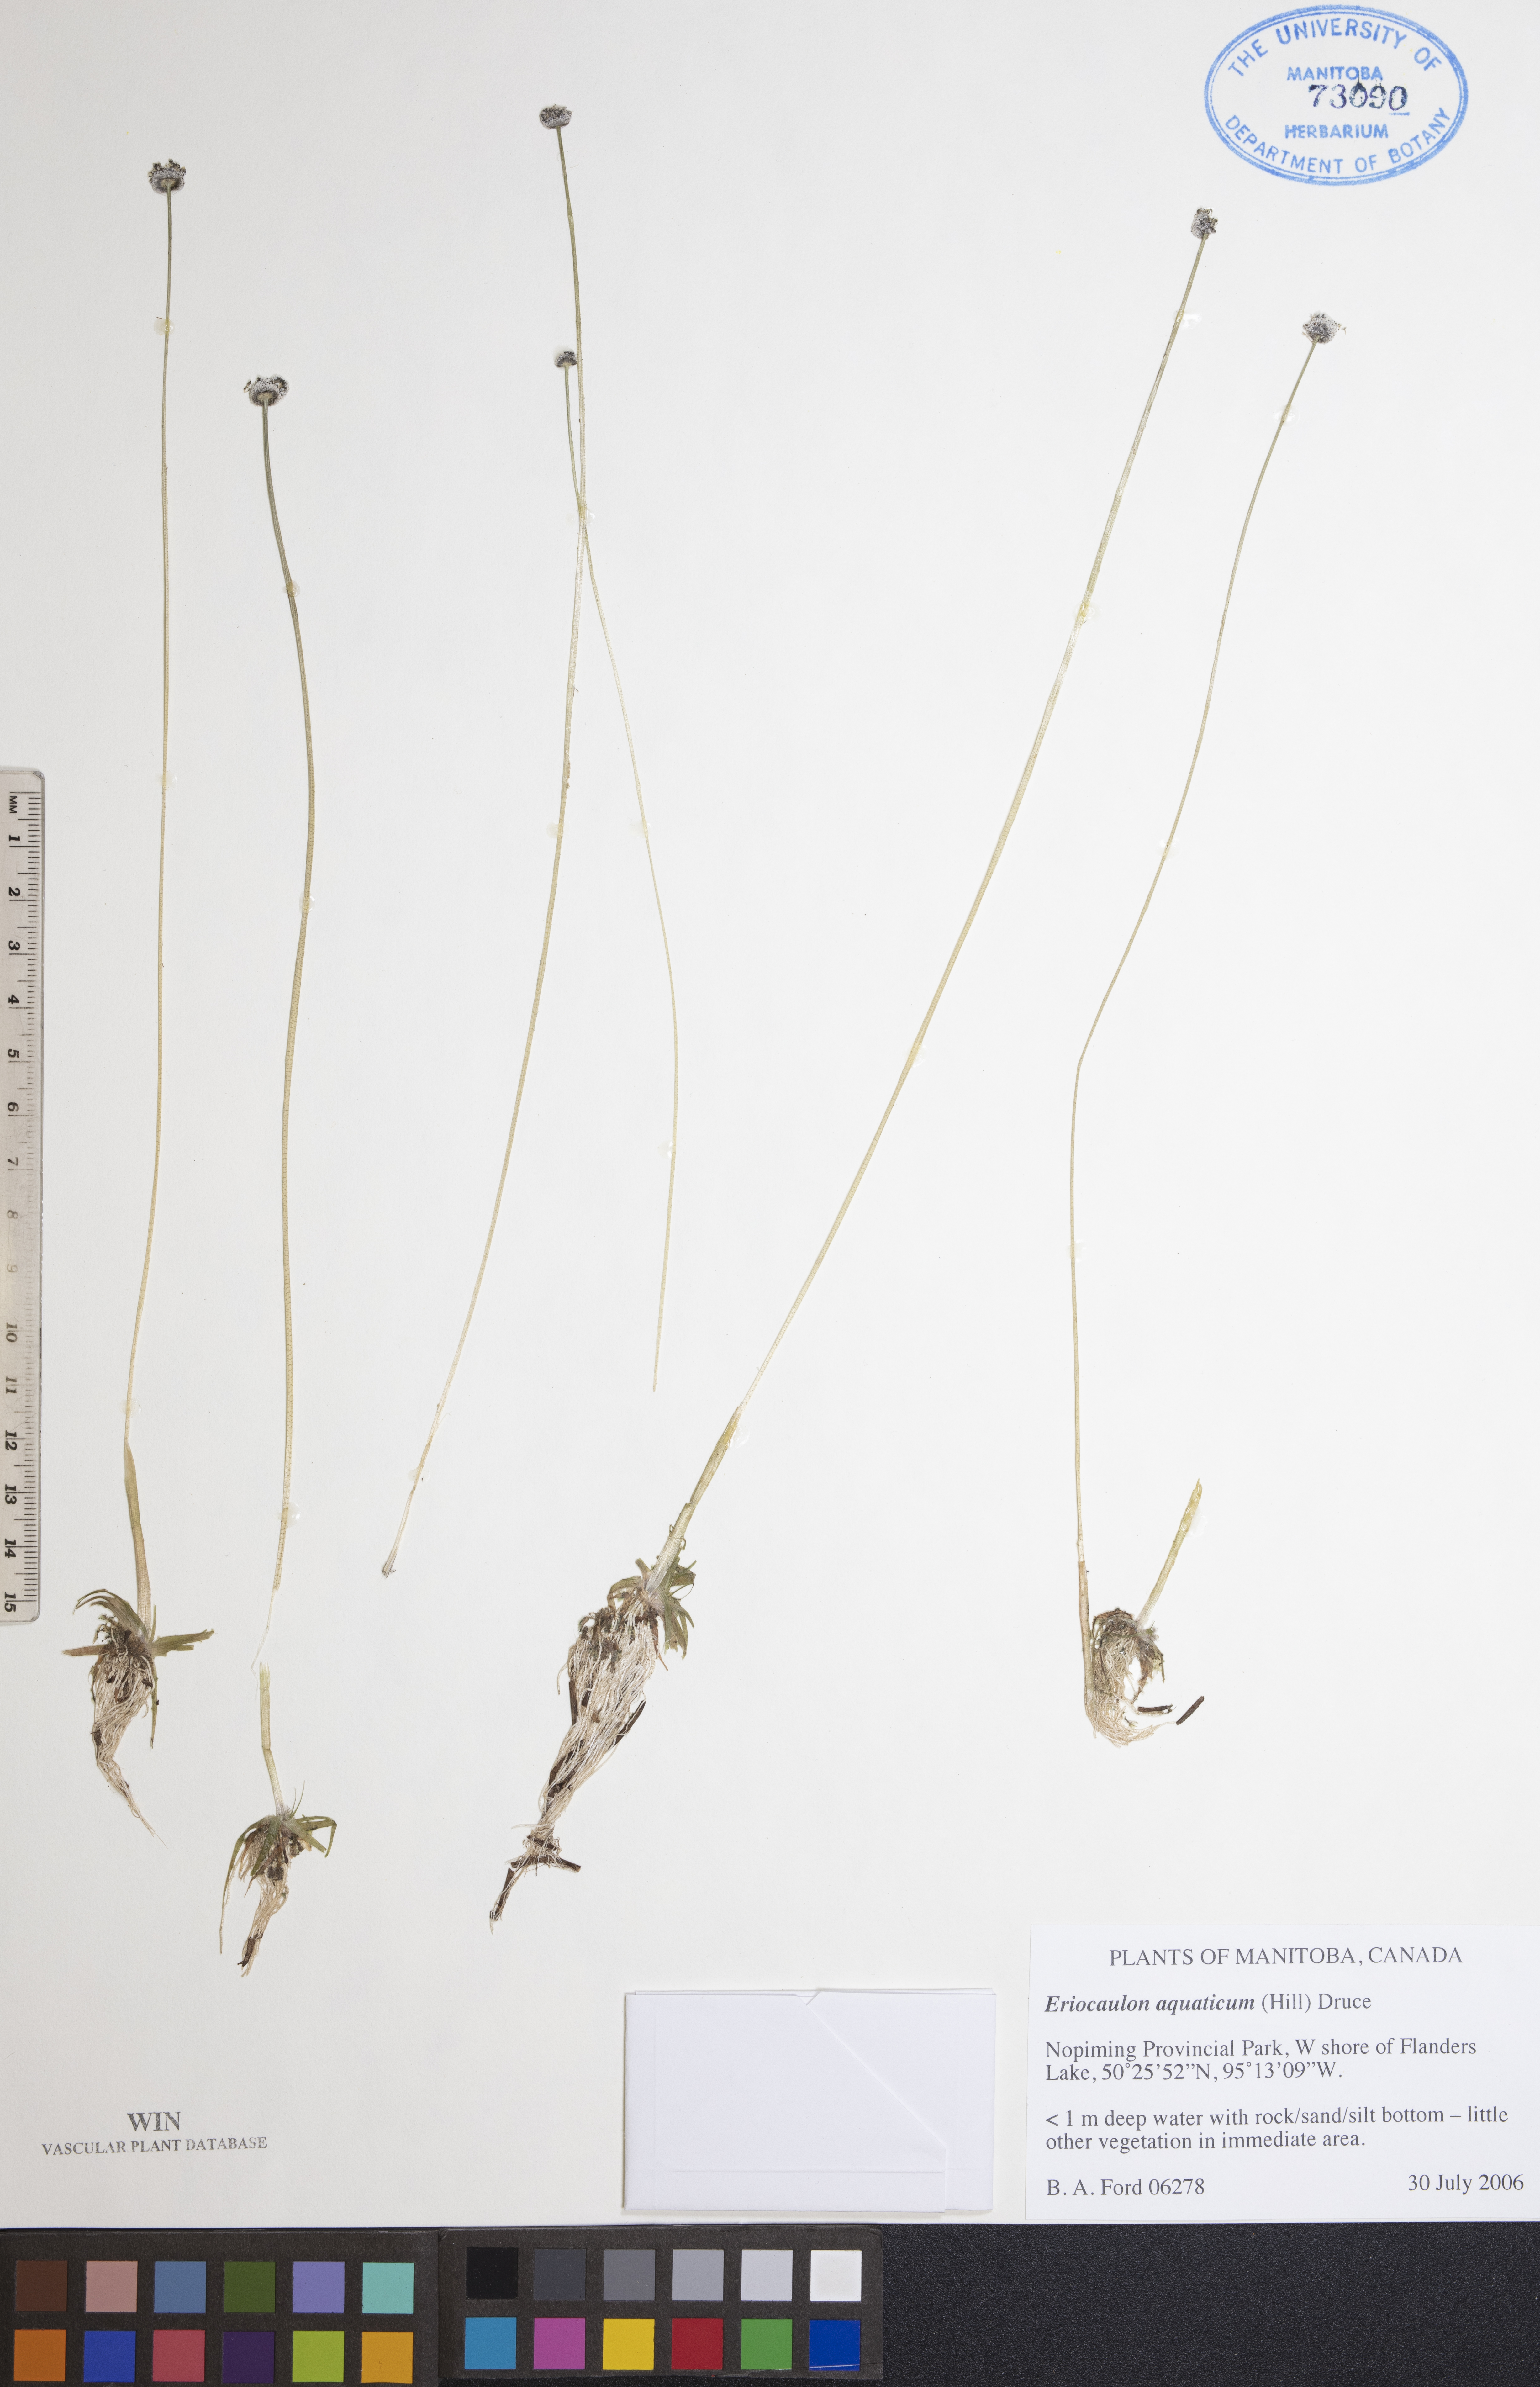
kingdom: Plantae
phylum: Tracheophyta
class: Liliopsida
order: Poales
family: Eriocaulaceae
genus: Eriocaulon
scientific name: Eriocaulon aquaticum
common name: Pipewort
